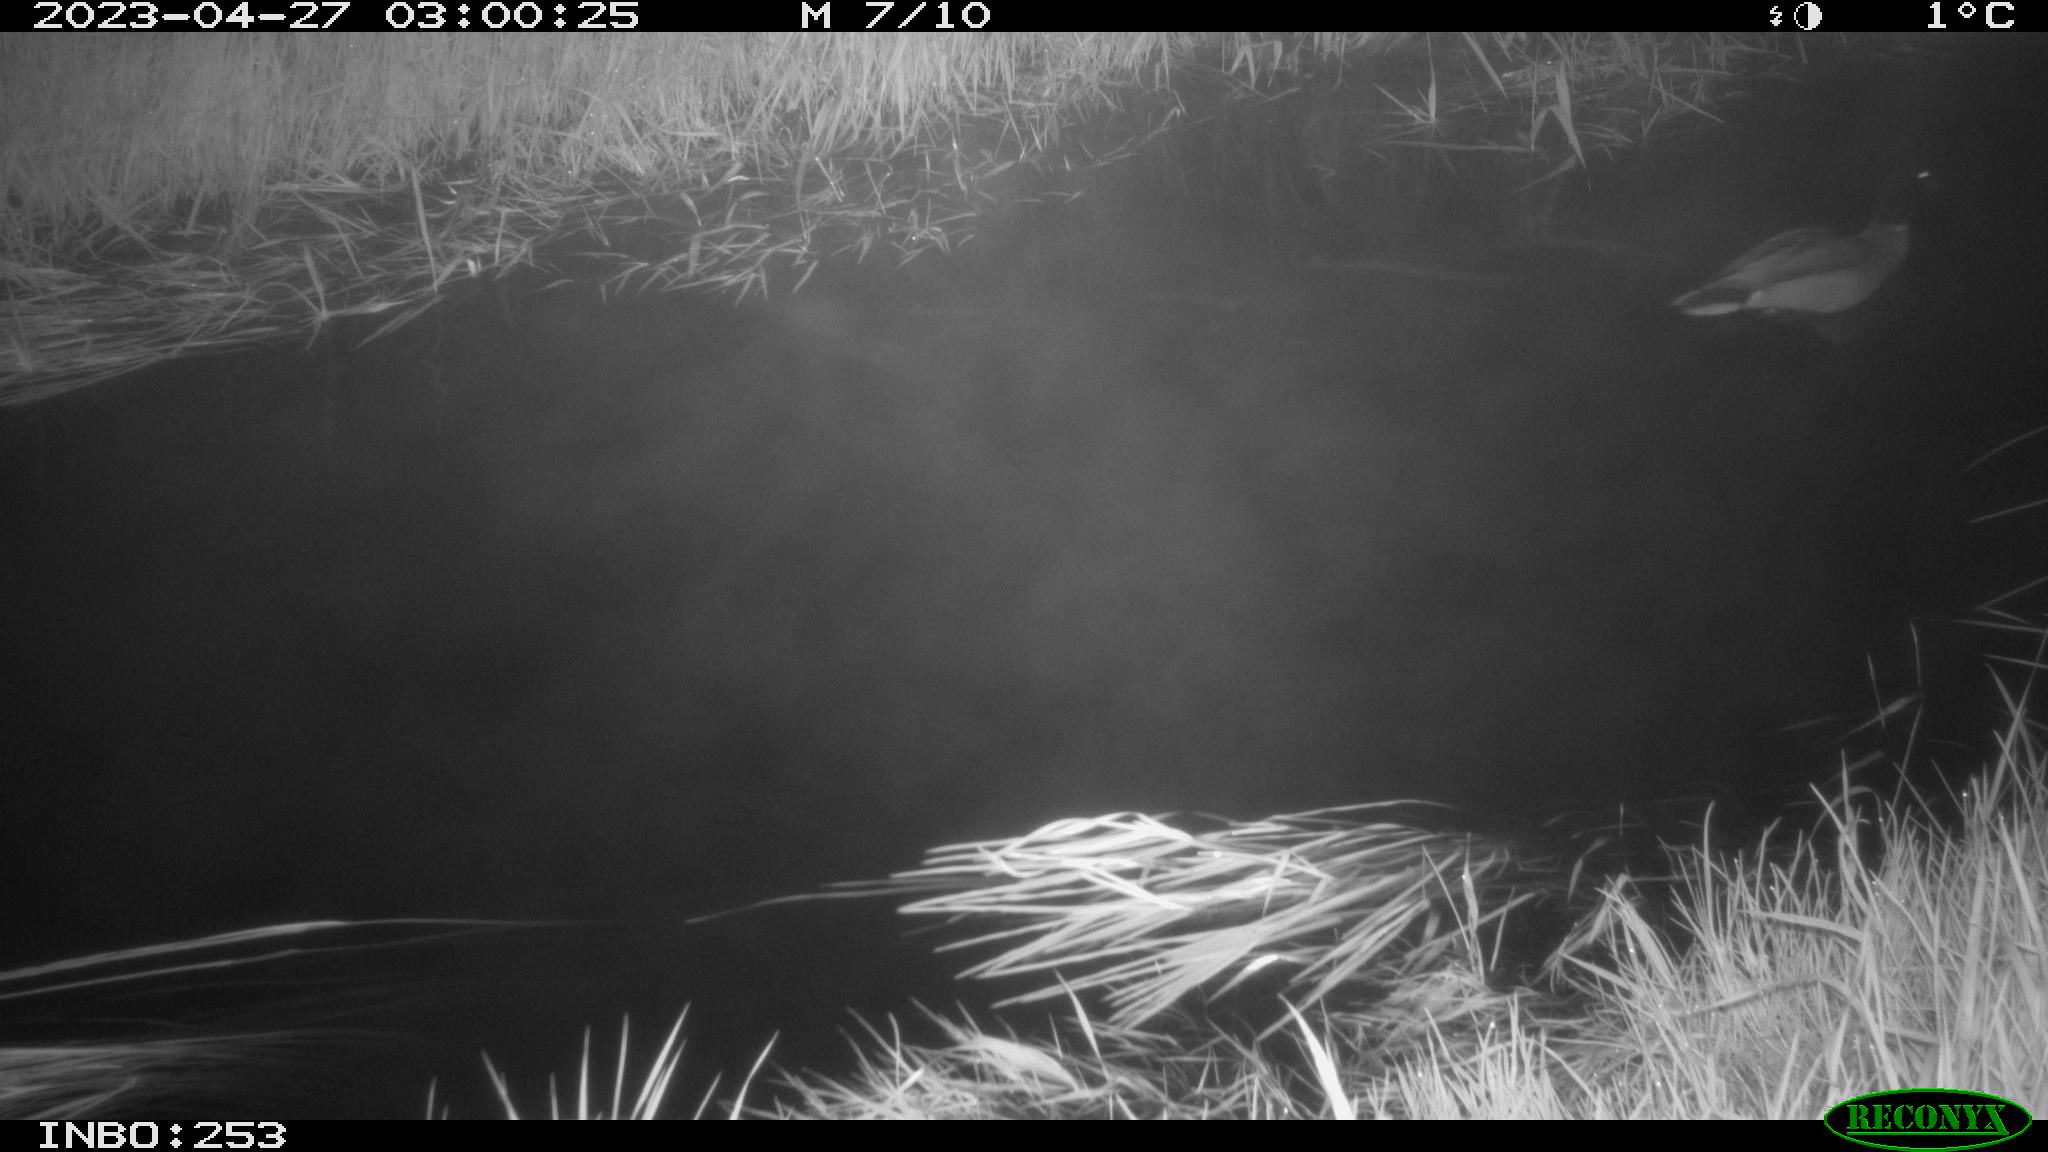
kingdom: Animalia
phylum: Chordata
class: Aves
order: Anseriformes
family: Anatidae
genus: Anas
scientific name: Anas
